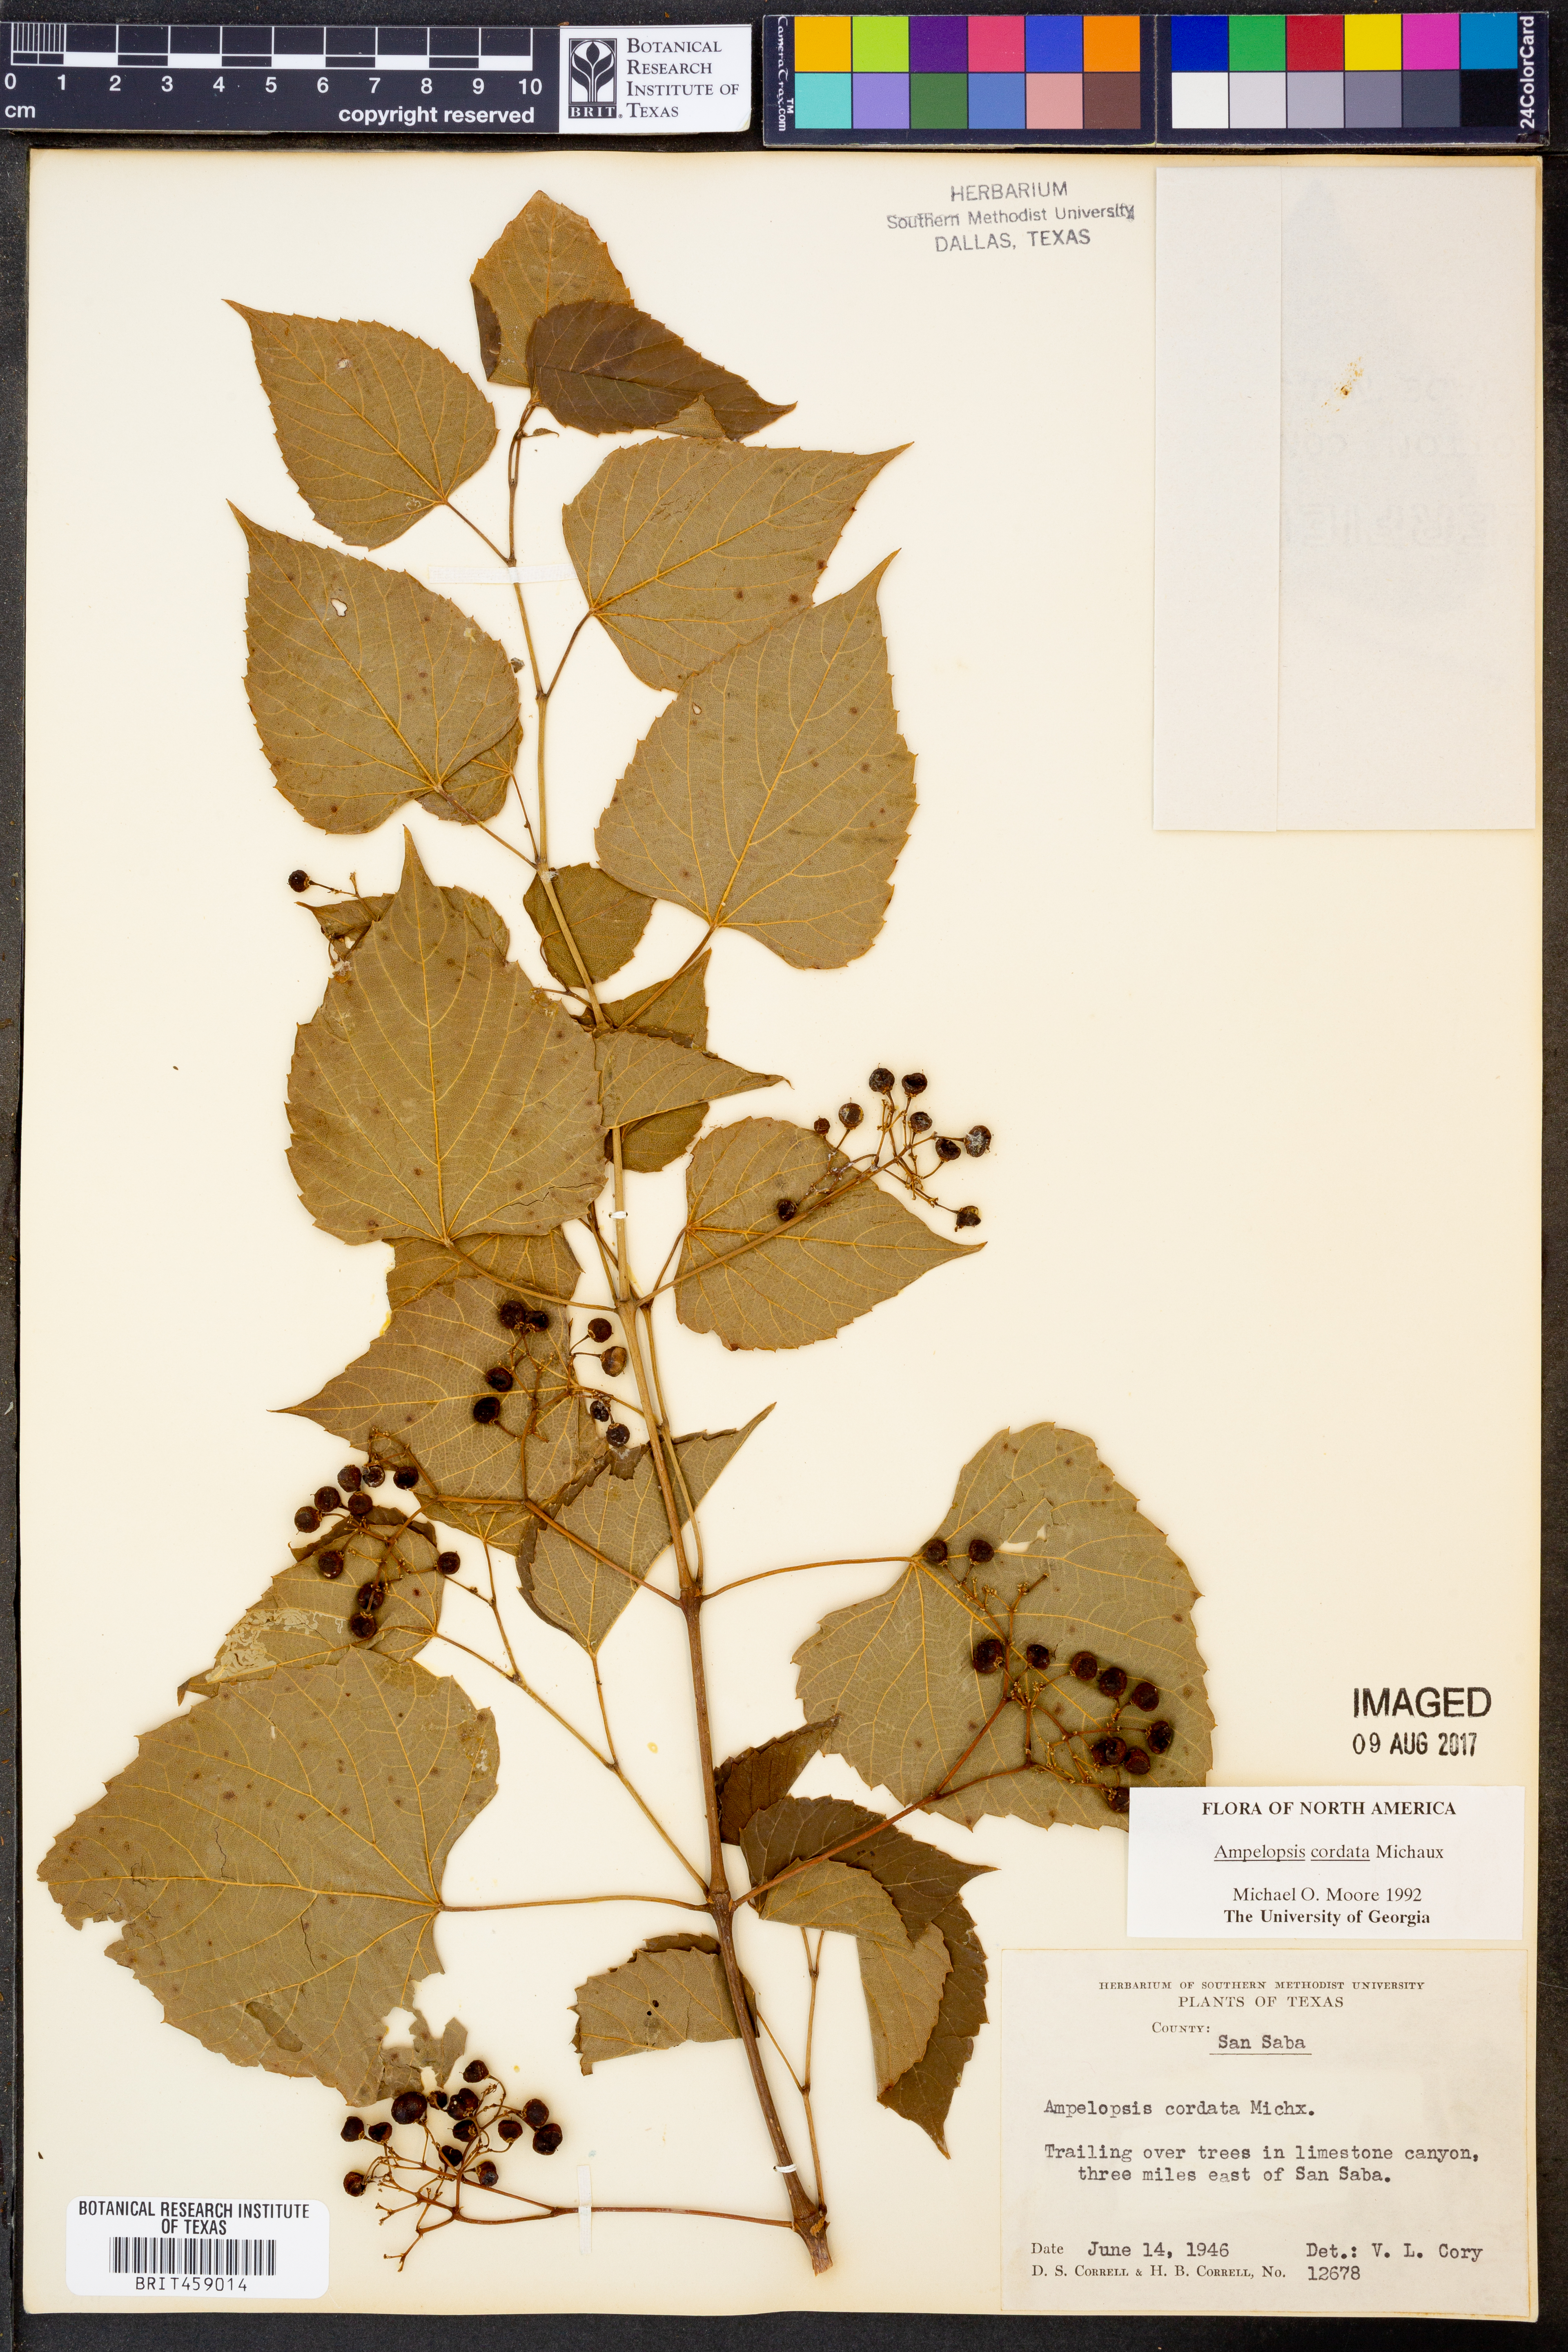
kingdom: Plantae
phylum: Tracheophyta
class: Magnoliopsida
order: Vitales
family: Vitaceae
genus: Ampelopsis
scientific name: Ampelopsis cordata
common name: Heart-leaf ampelopsis
